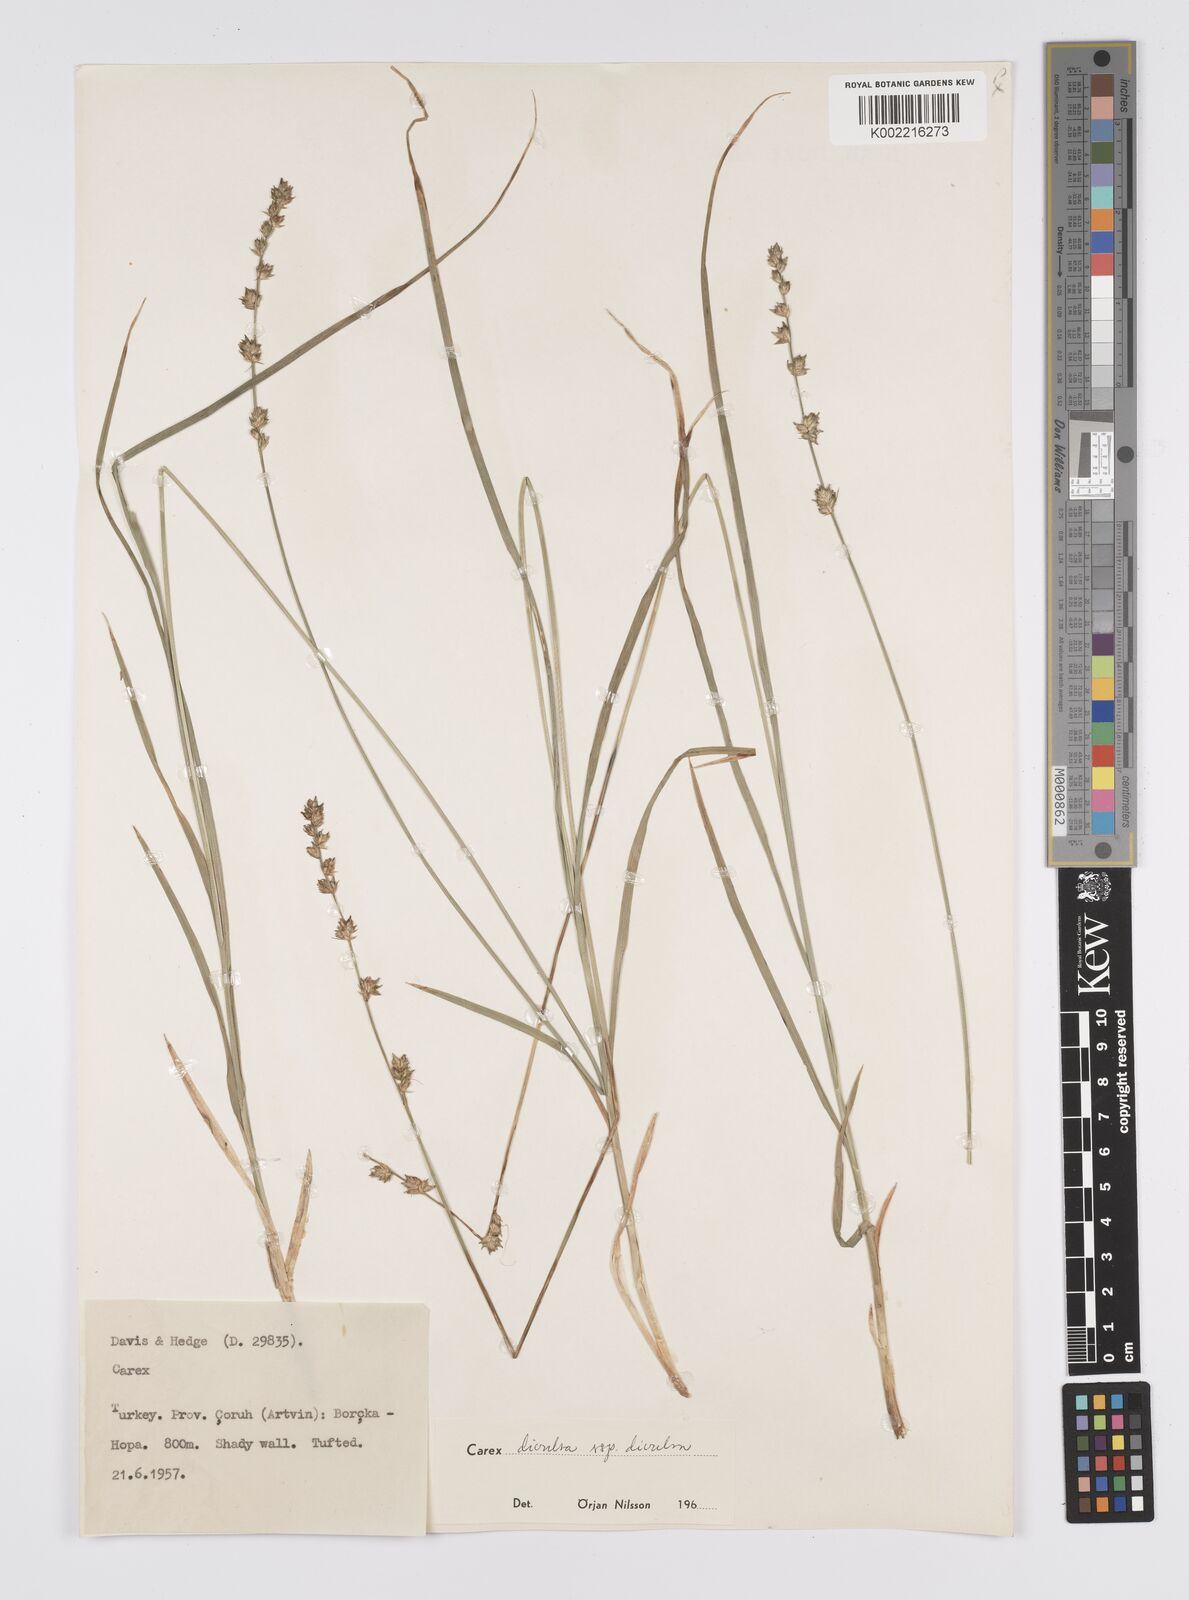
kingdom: Plantae
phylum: Tracheophyta
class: Liliopsida
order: Poales
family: Cyperaceae
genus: Carex
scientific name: Carex divulsa
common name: Grassland sedge
